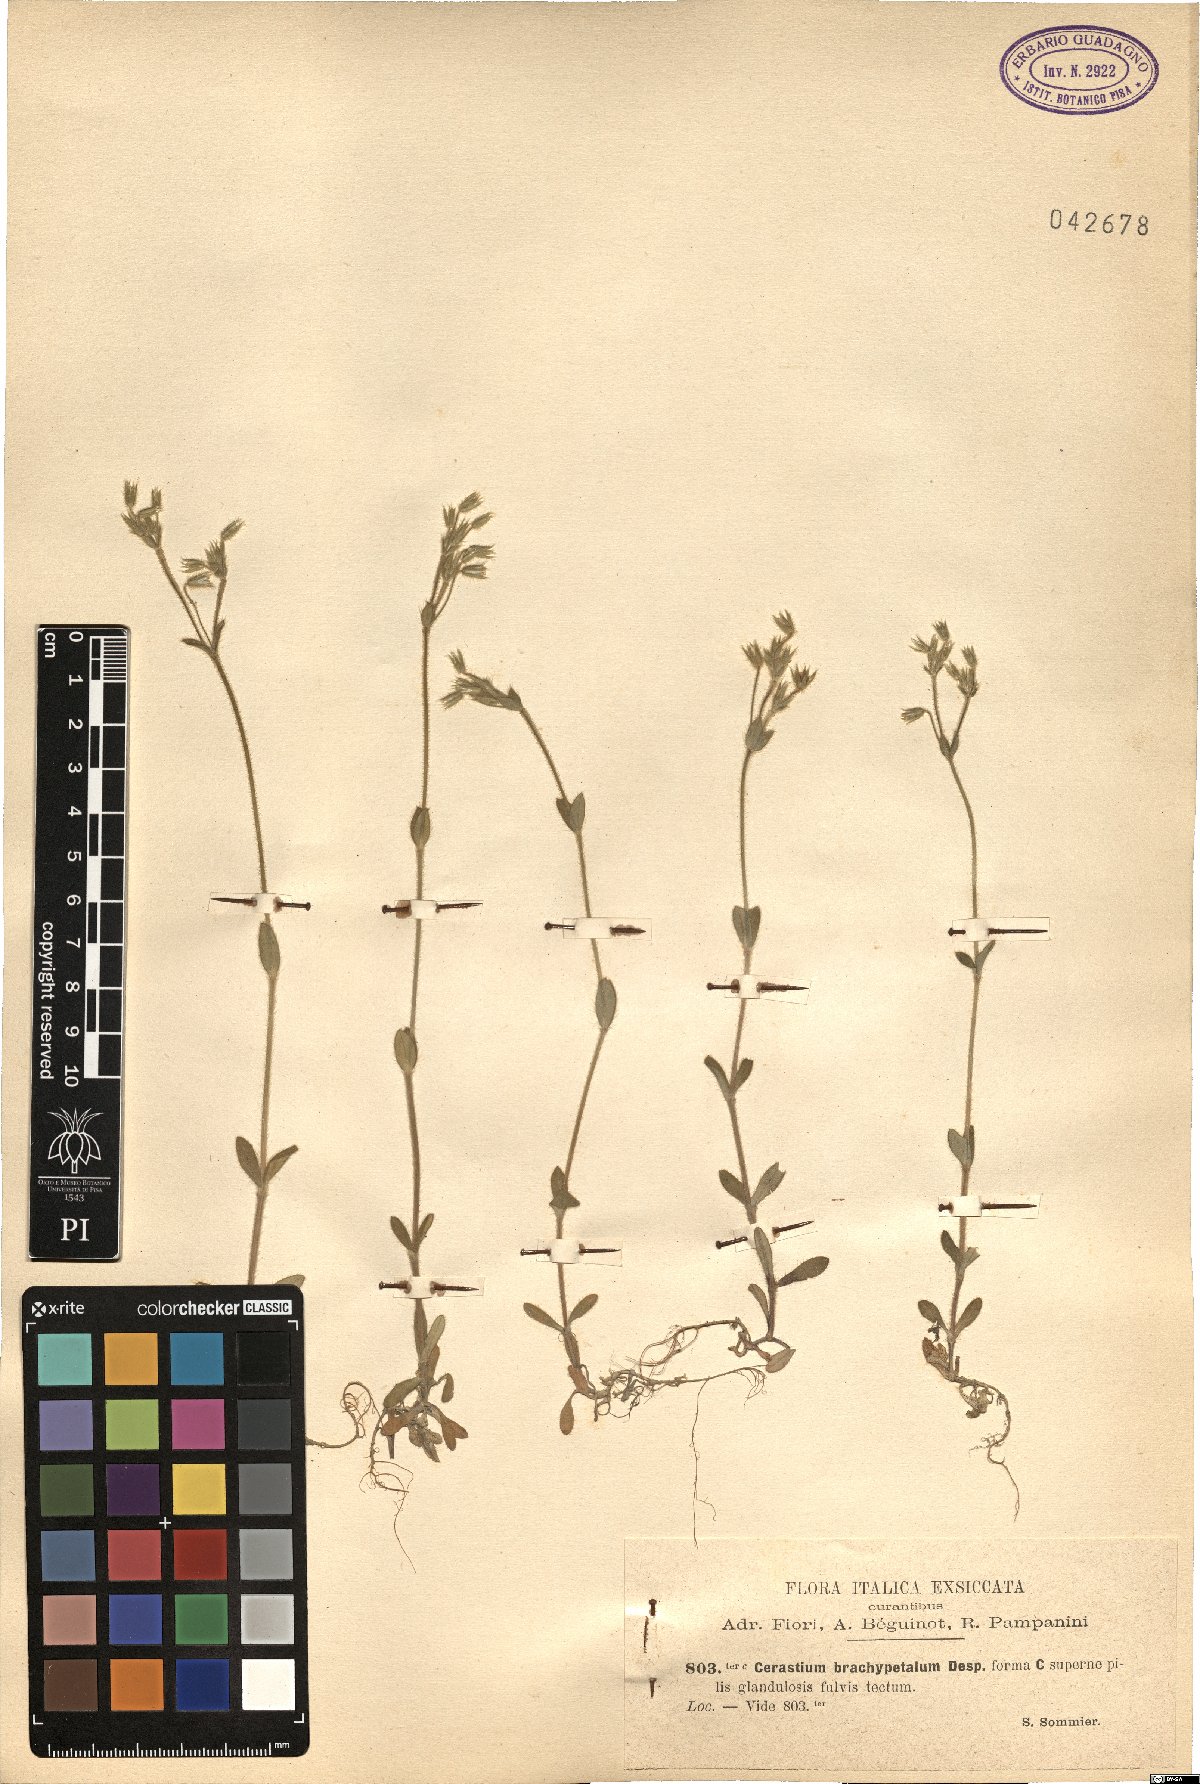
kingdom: Plantae
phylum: Tracheophyta
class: Magnoliopsida
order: Caryophyllales
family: Caryophyllaceae
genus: Cerastium
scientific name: Cerastium brachypetalum
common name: Grey mouse-ear
